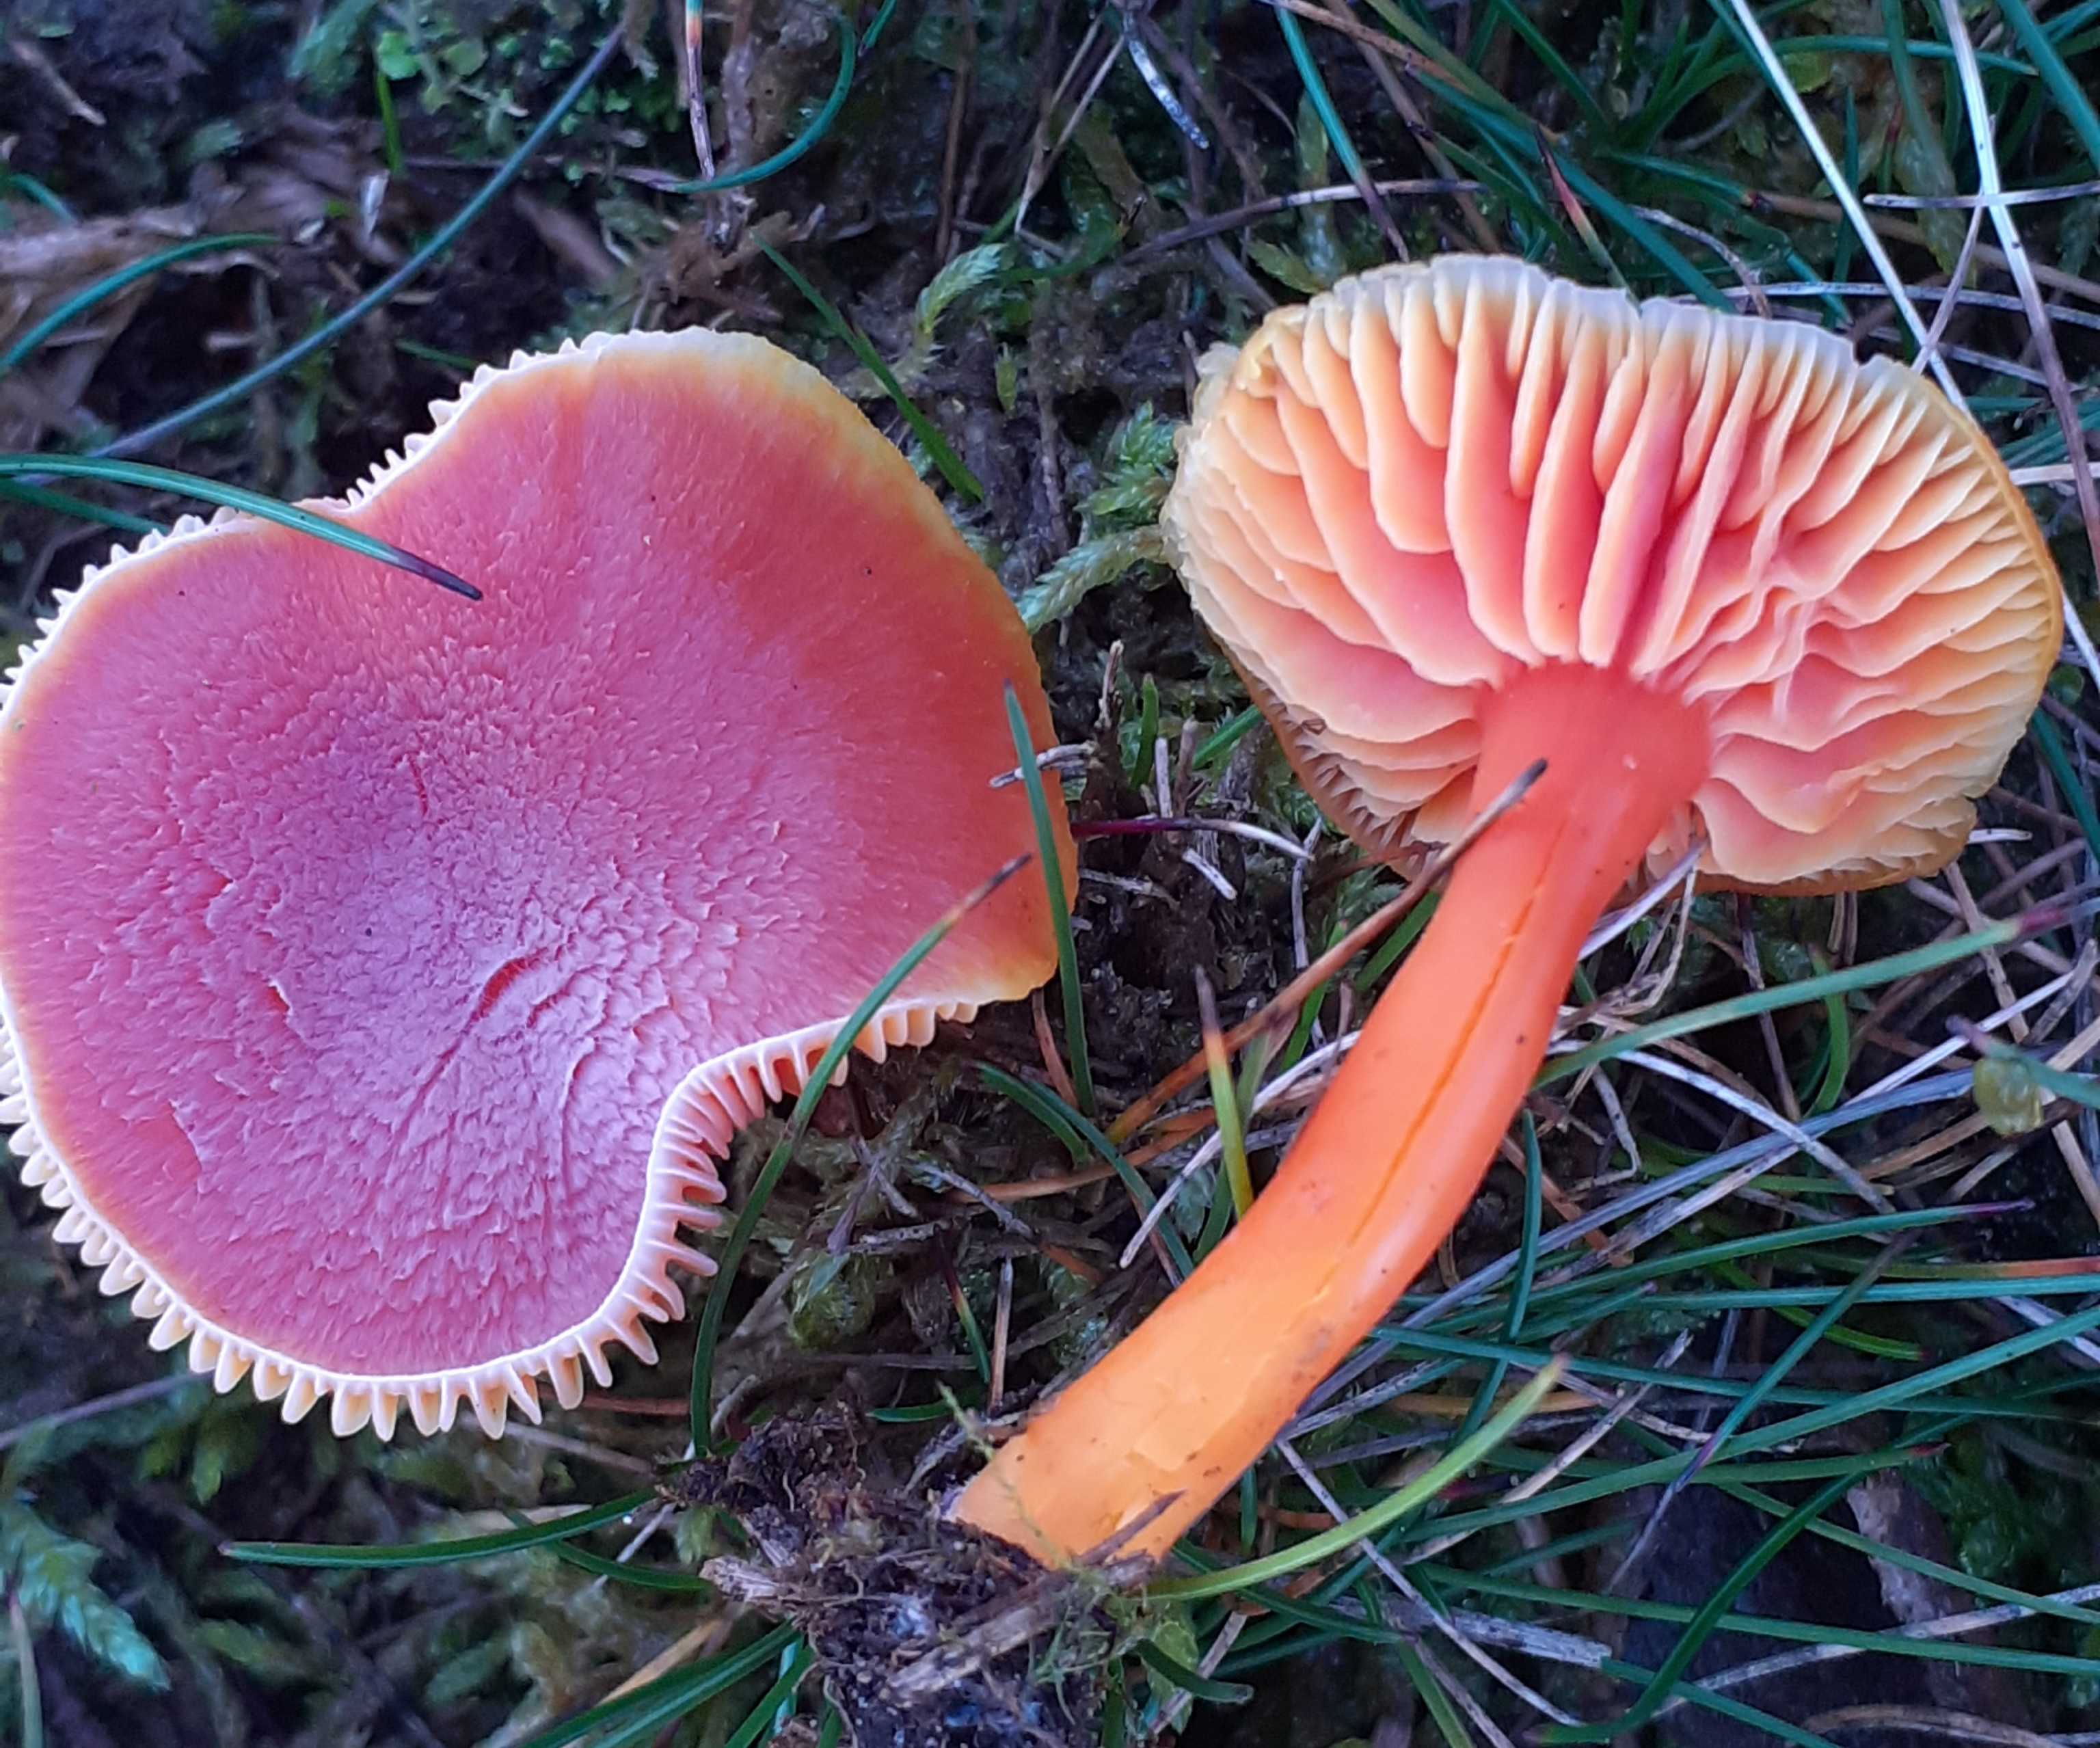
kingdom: Fungi
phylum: Basidiomycota
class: Agaricomycetes
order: Agaricales
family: Hygrophoraceae
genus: Hygrocybe
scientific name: Hygrocybe miniata
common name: mønje-vokshat
